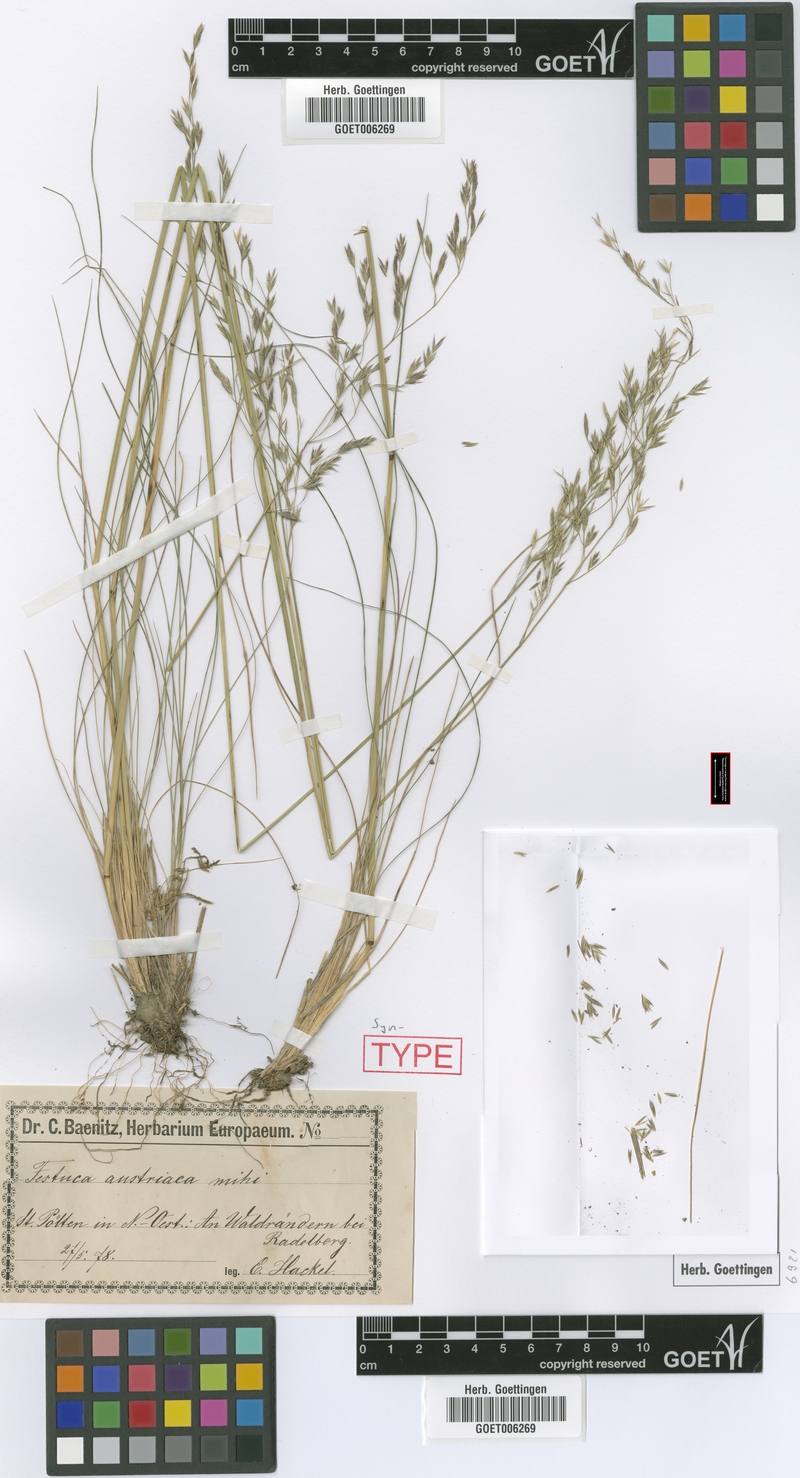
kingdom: Plantae
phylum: Tracheophyta
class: Liliopsida
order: Poales
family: Poaceae
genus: Festuca
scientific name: Festuca amethystina
